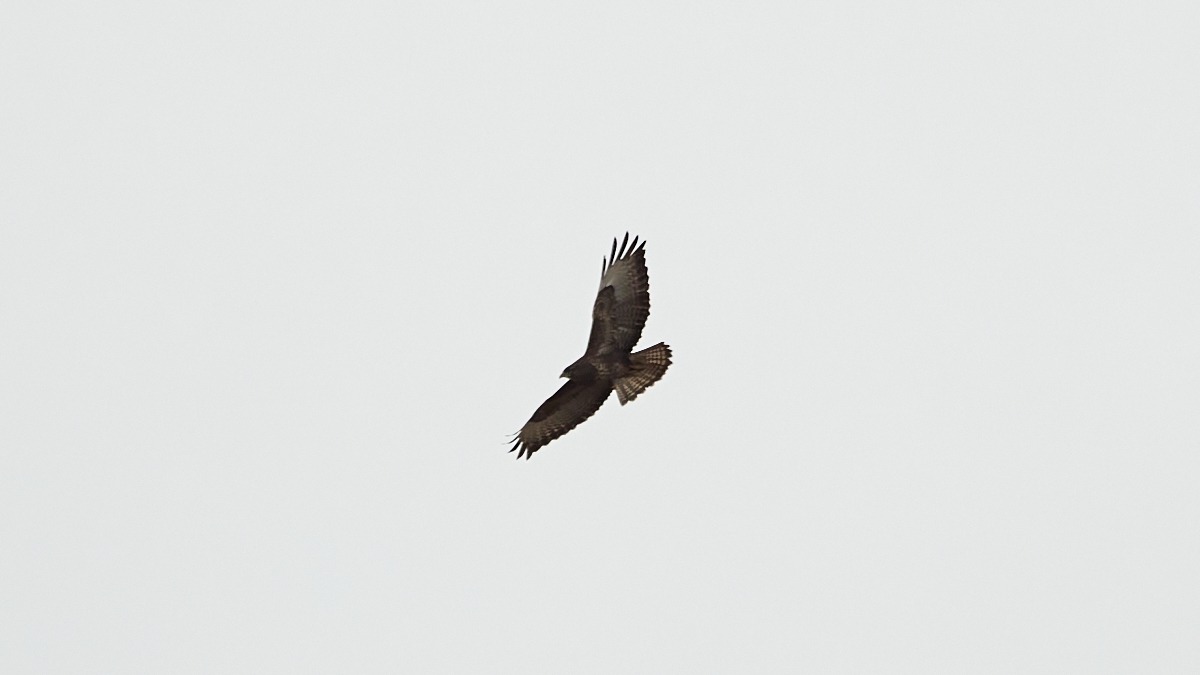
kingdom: Animalia
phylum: Chordata
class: Aves
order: Accipitriformes
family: Accipitridae
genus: Buteo
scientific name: Buteo buteo
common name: Musvåge
